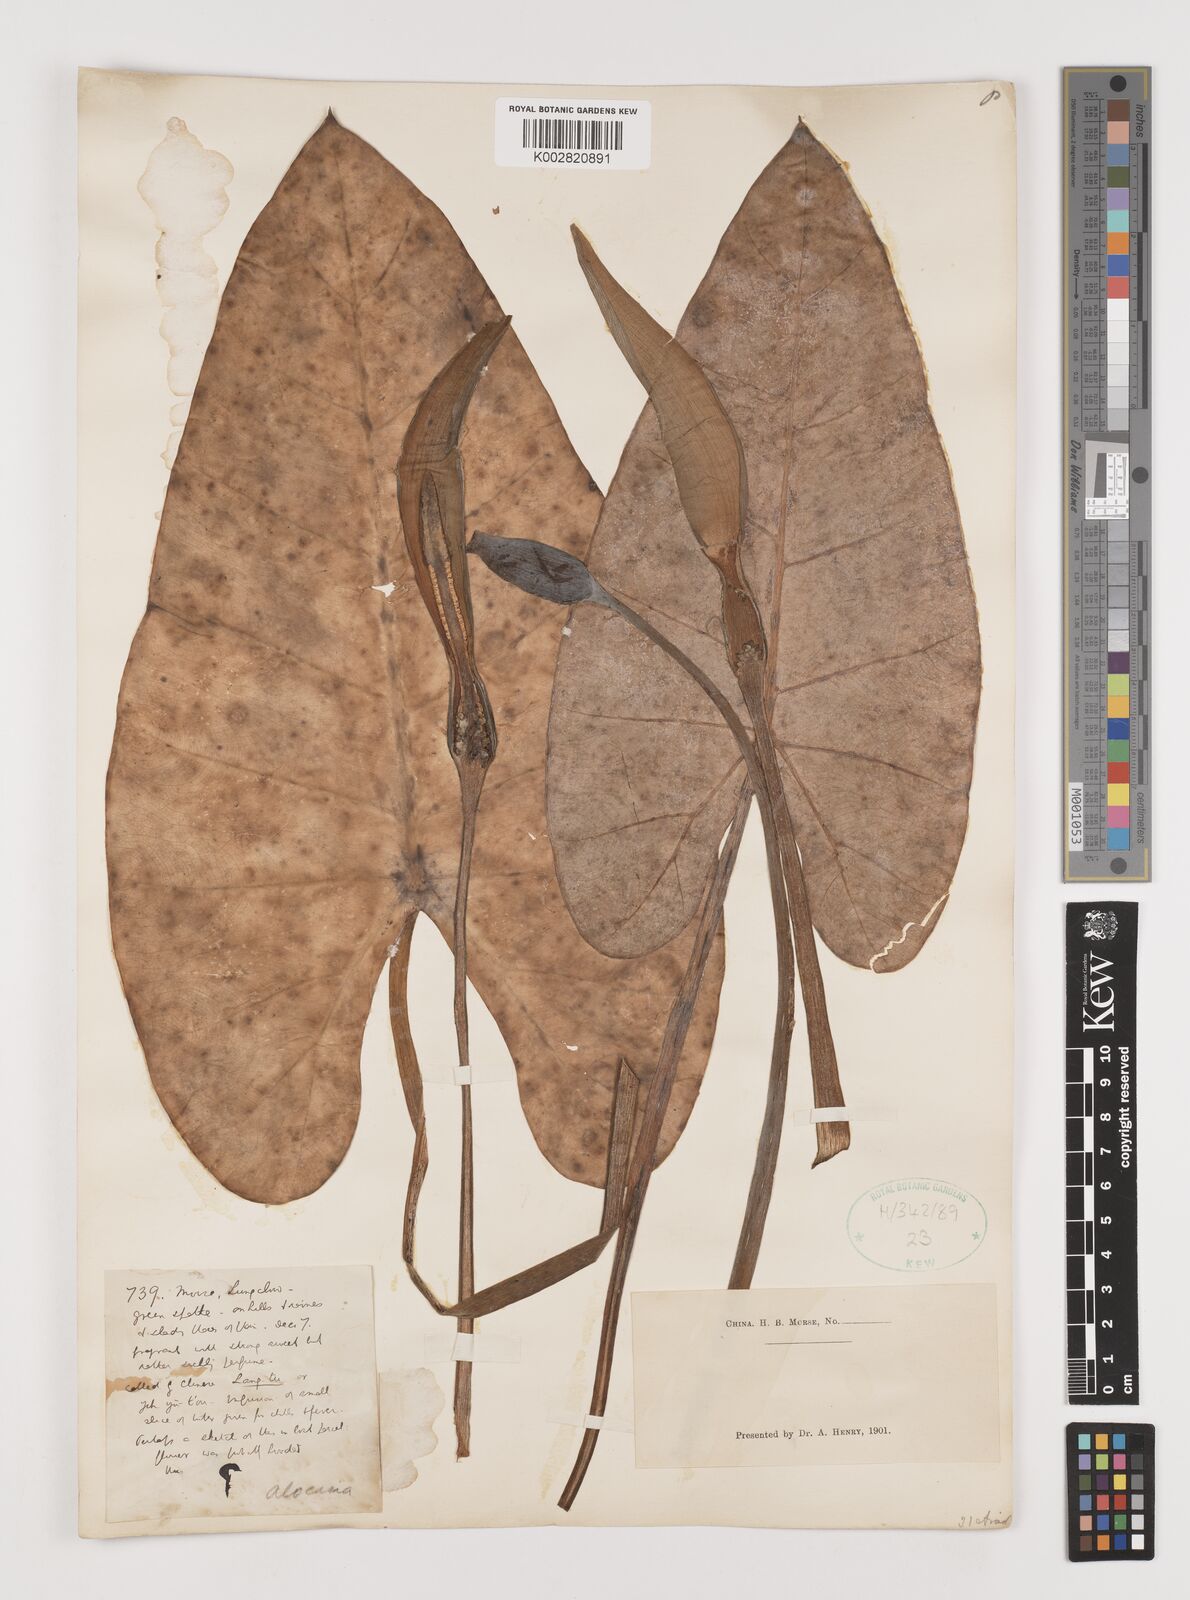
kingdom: Plantae
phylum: Tracheophyta
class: Liliopsida
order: Alismatales
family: Araceae
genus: Alocasia
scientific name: Alocasia
